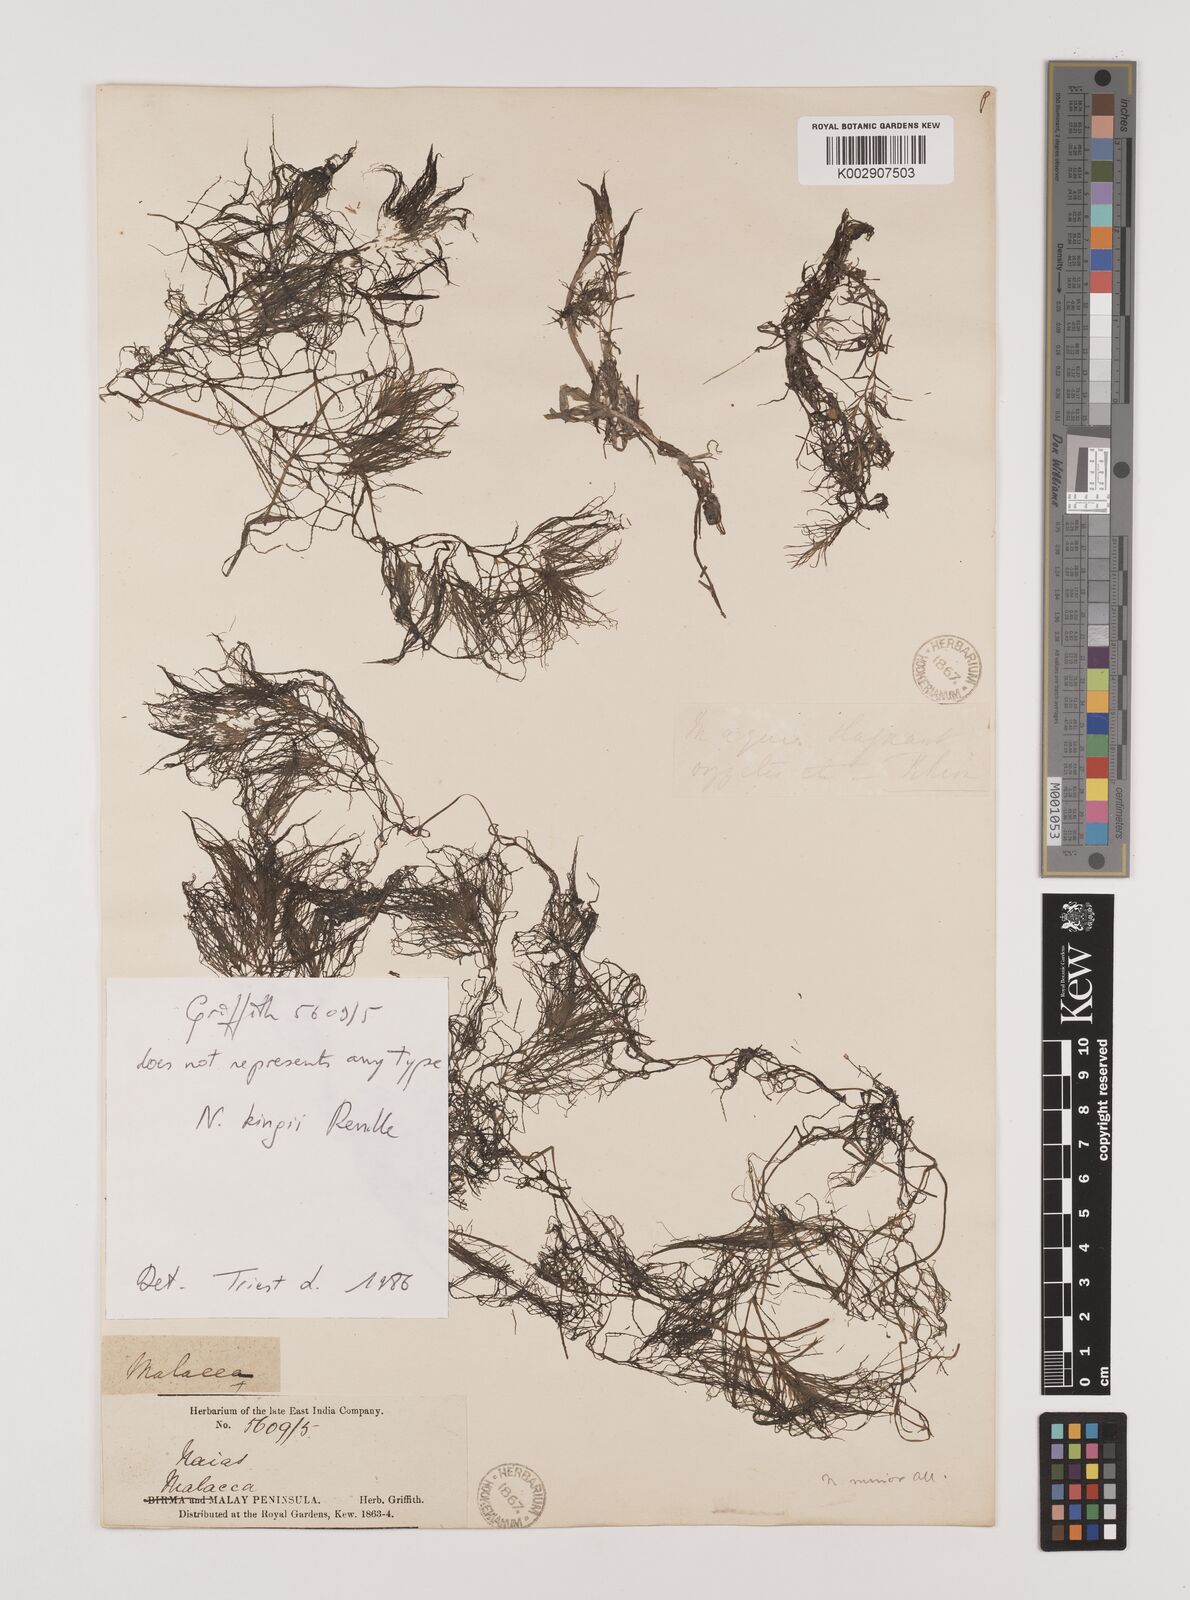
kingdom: Plantae
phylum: Tracheophyta
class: Liliopsida
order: Alismatales
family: Hydrocharitaceae
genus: Najas
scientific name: Najas indica
